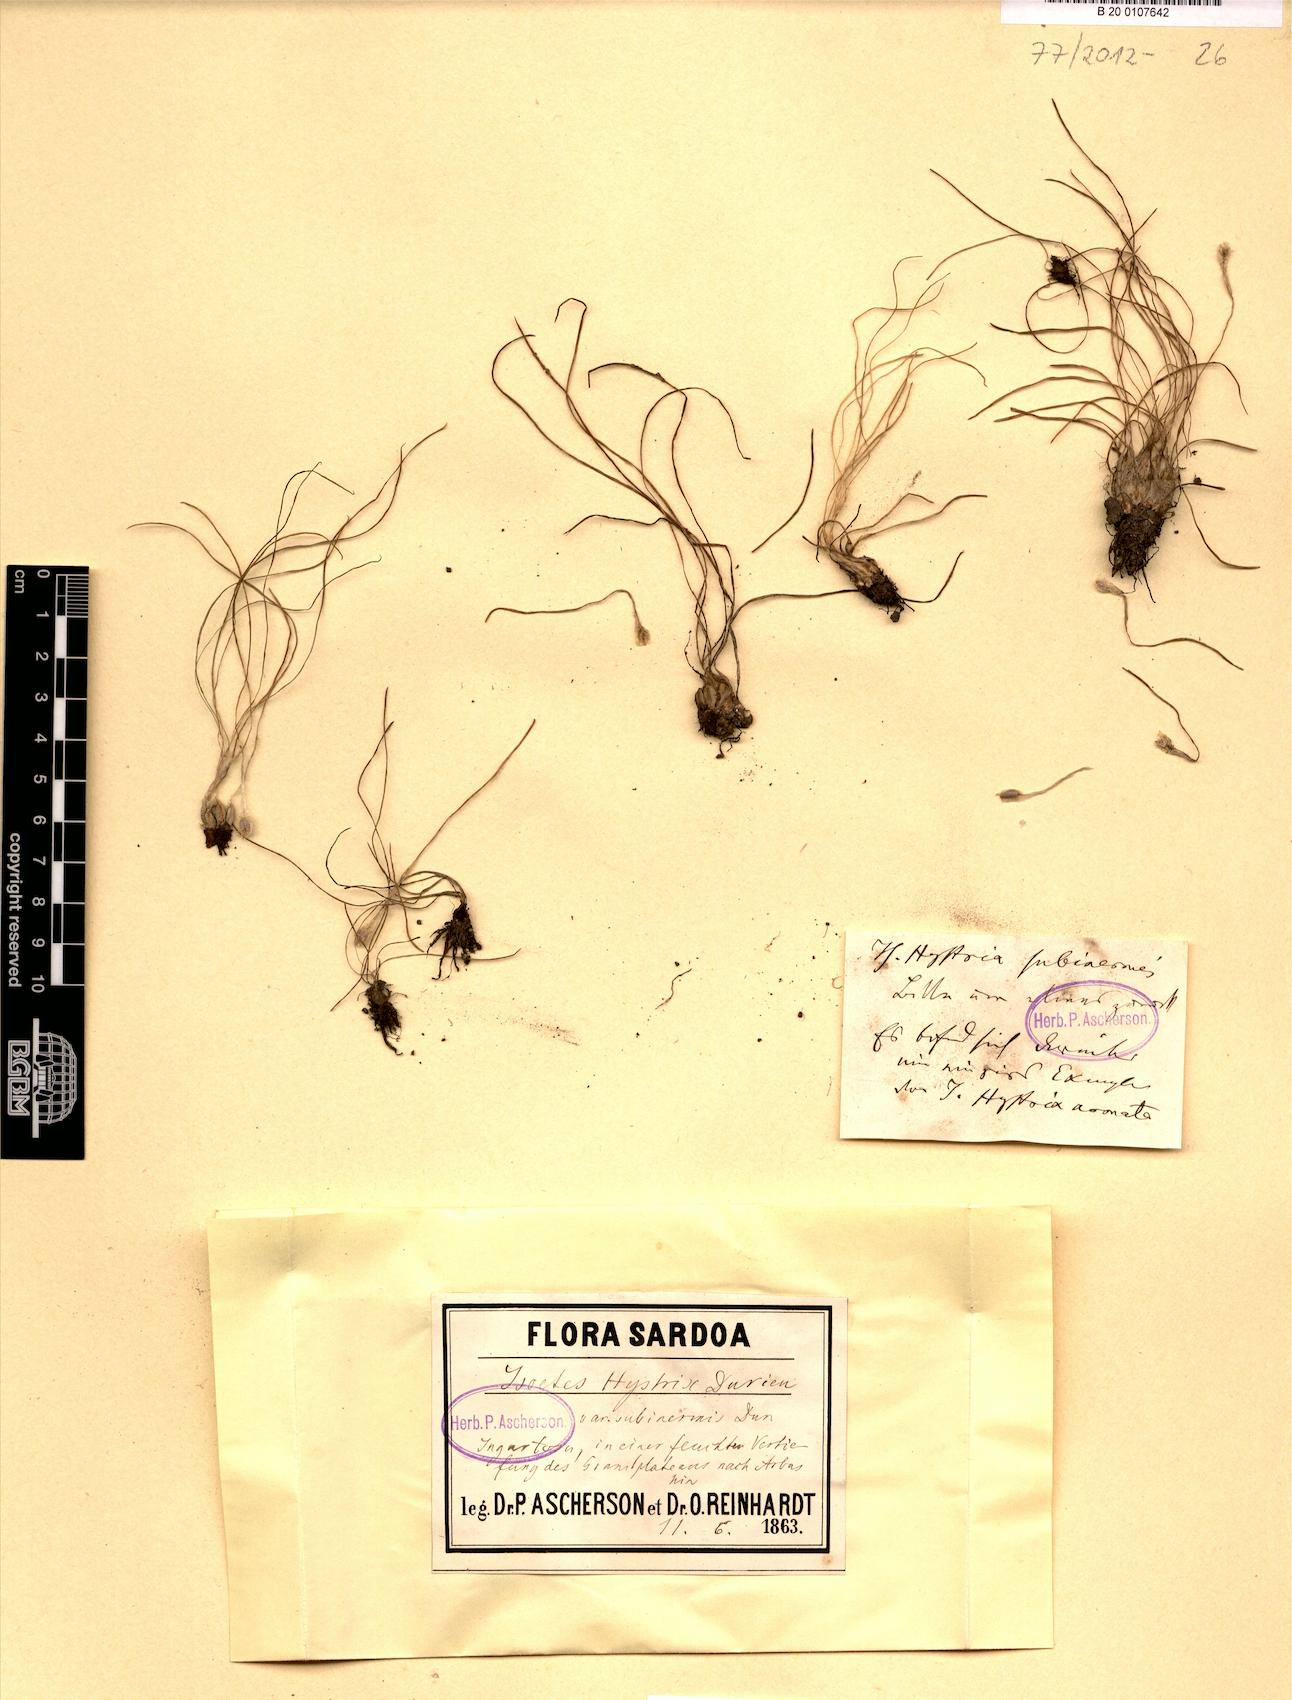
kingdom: Plantae
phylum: Tracheophyta
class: Lycopodiopsida
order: Isoetales
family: Isoetaceae
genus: Isoetes
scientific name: Isoetes histrix
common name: Land quillwort
